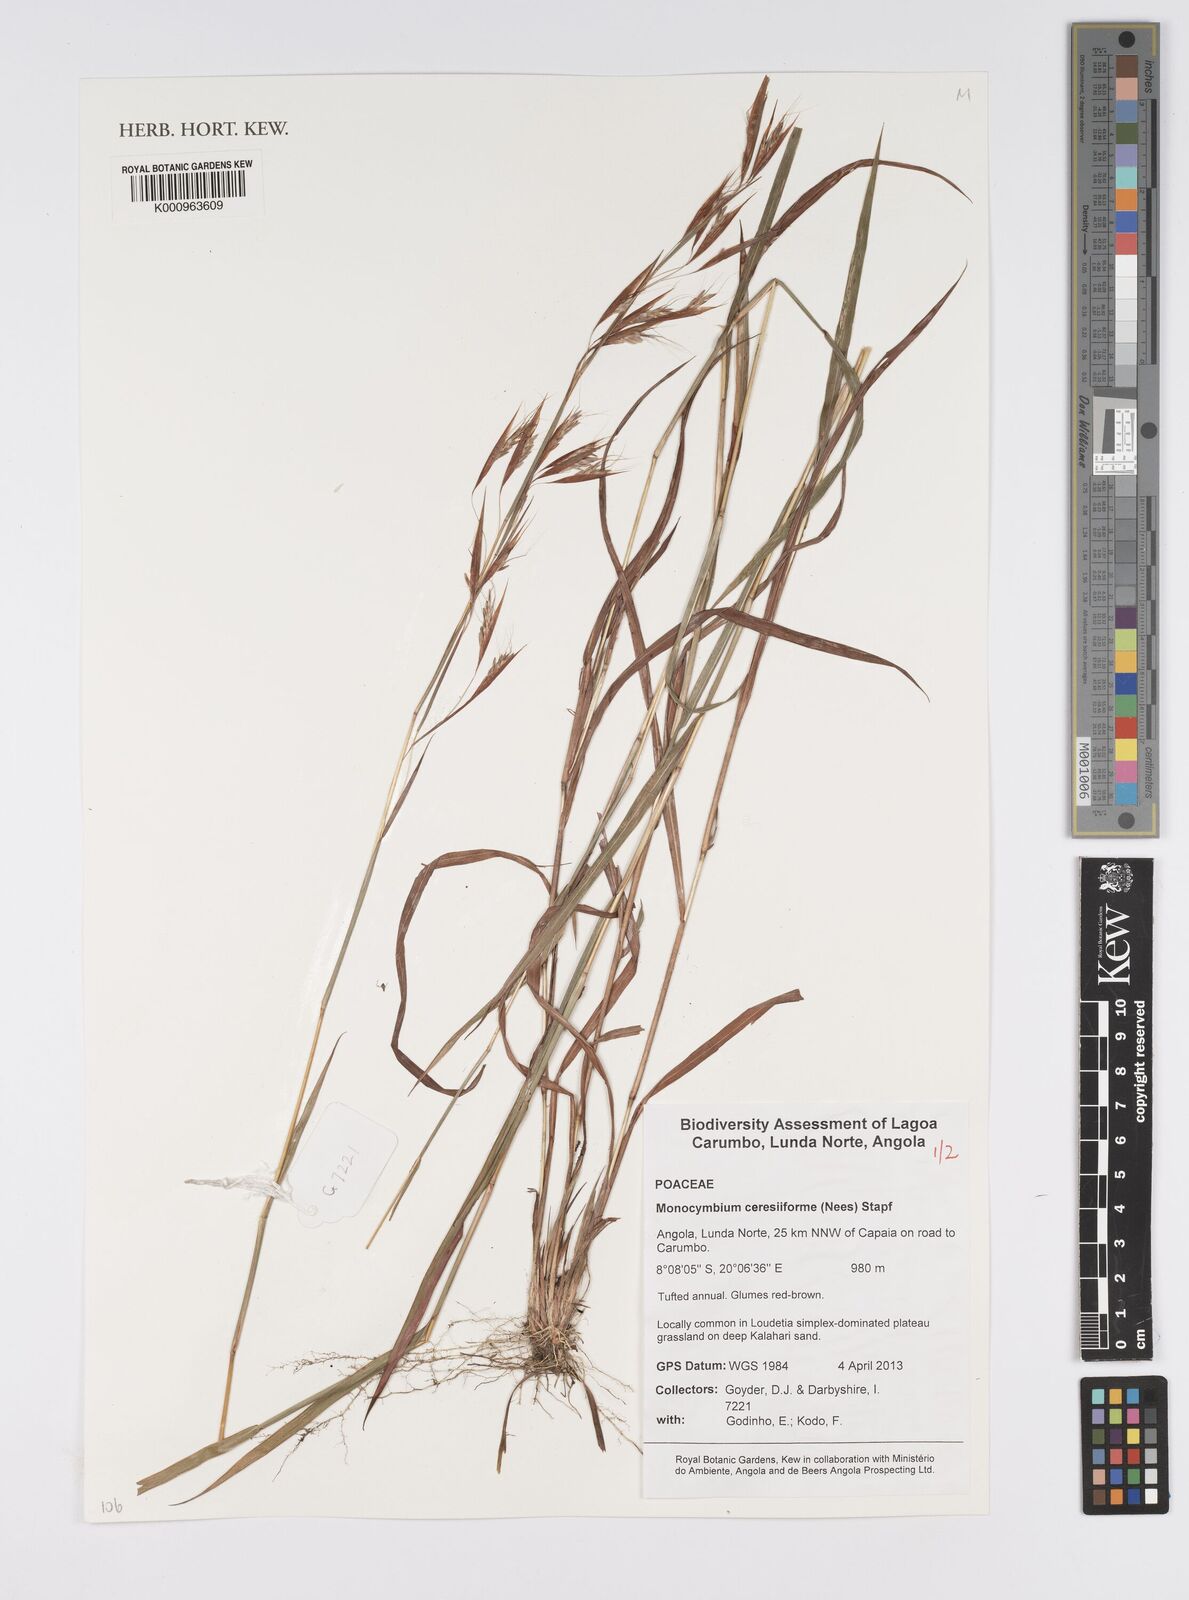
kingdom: Plantae
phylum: Tracheophyta
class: Liliopsida
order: Poales
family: Poaceae
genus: Monocymbium
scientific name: Monocymbium ceresiiforme
